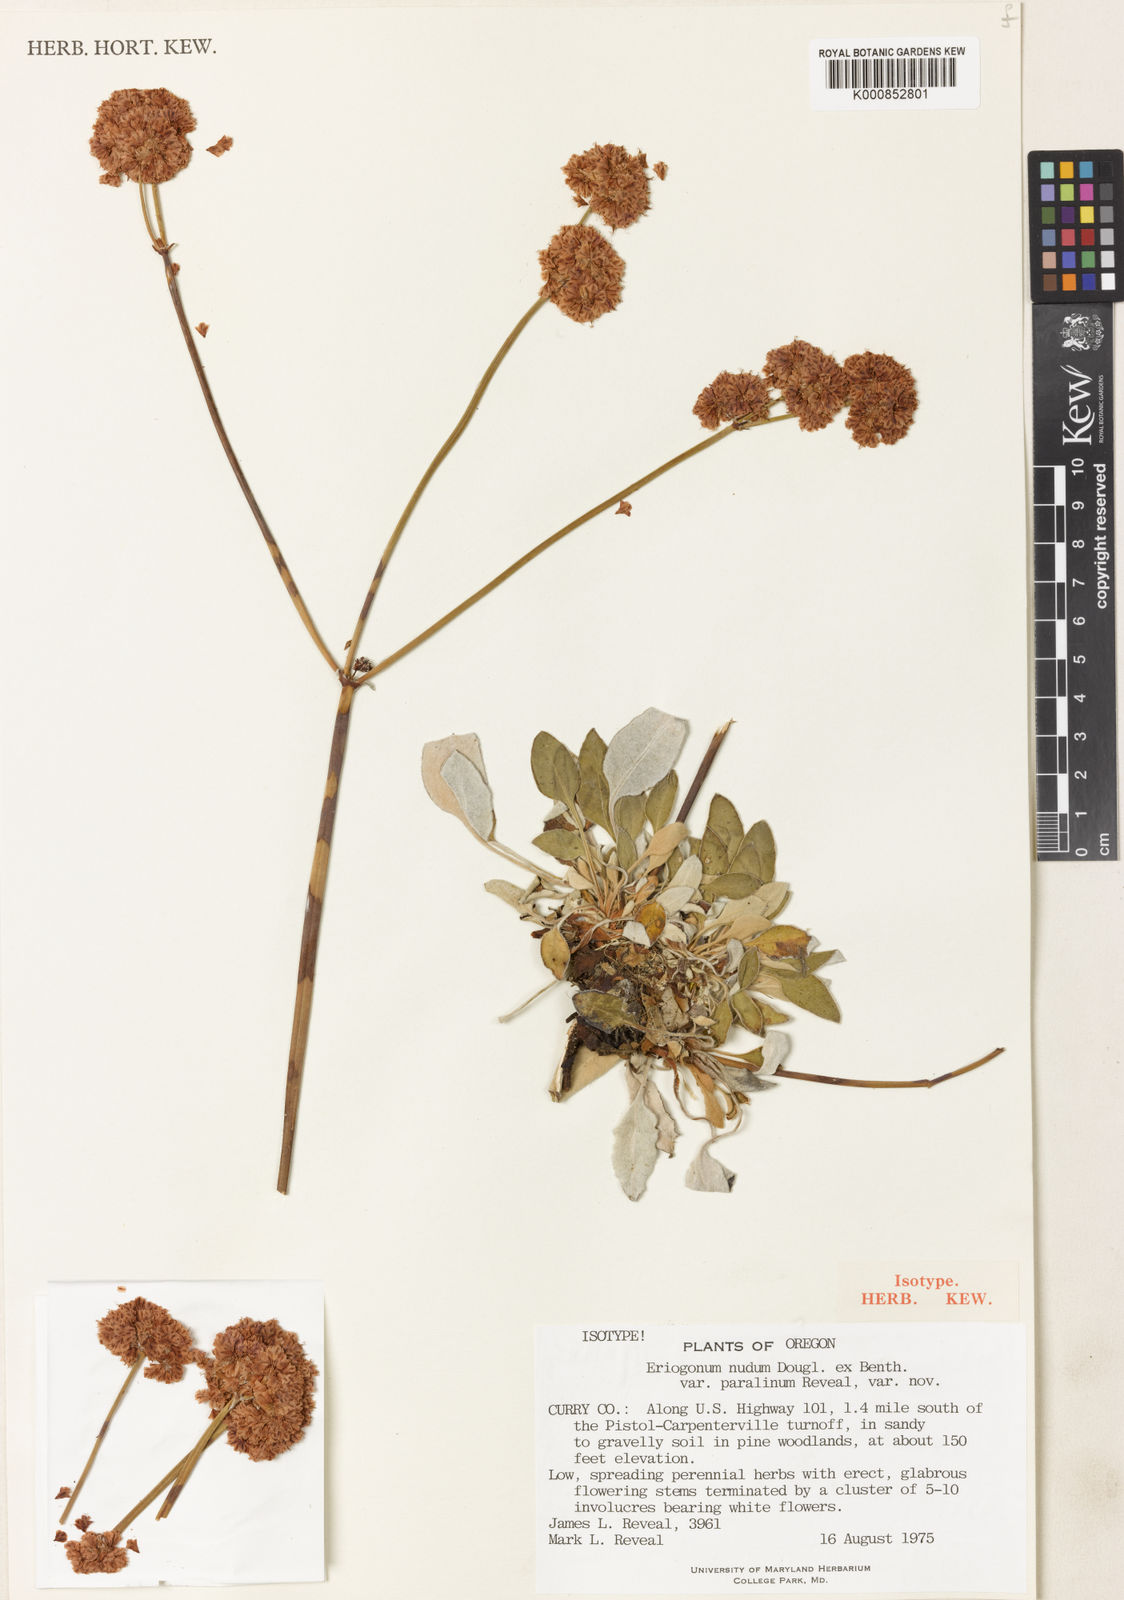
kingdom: Plantae
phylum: Tracheophyta
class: Magnoliopsida
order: Caryophyllales
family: Polygonaceae
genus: Eriogonum
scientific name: Eriogonum nudum
